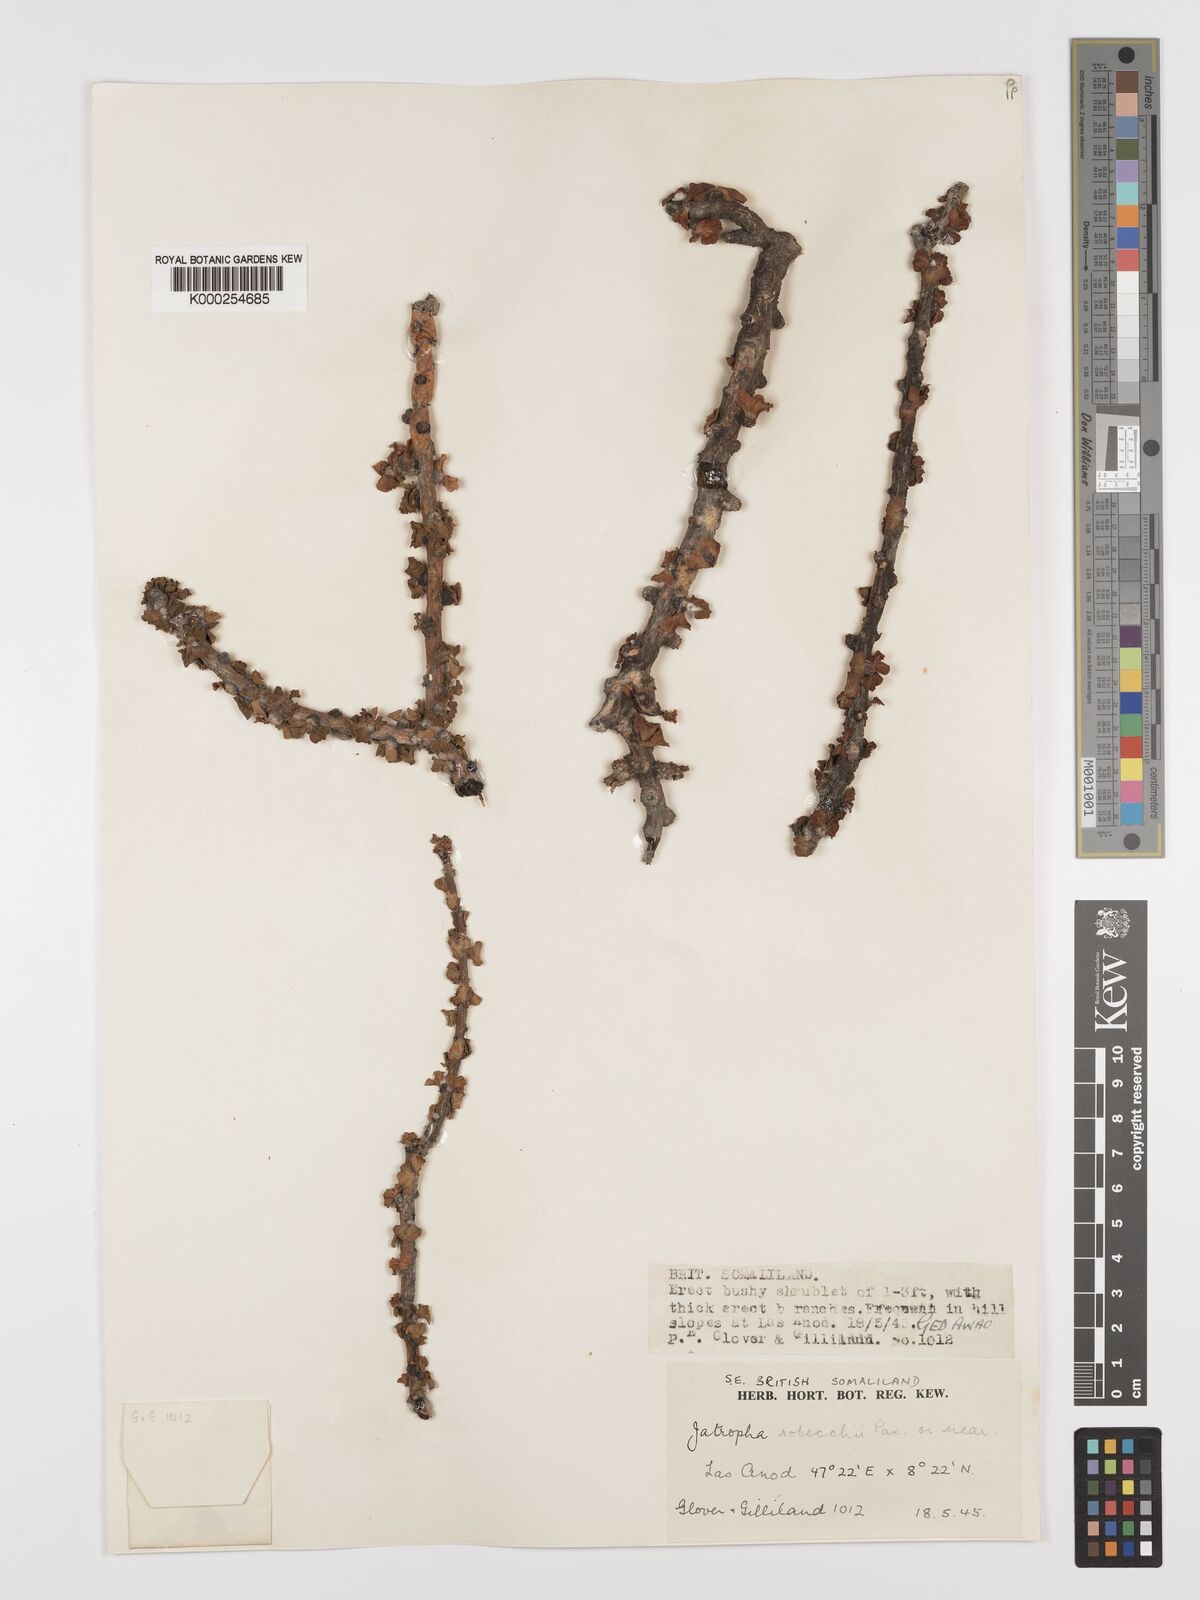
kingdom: Plantae
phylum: Tracheophyta
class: Magnoliopsida
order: Malpighiales
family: Euphorbiaceae
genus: Jatropha
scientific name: Jatropha robecchii
